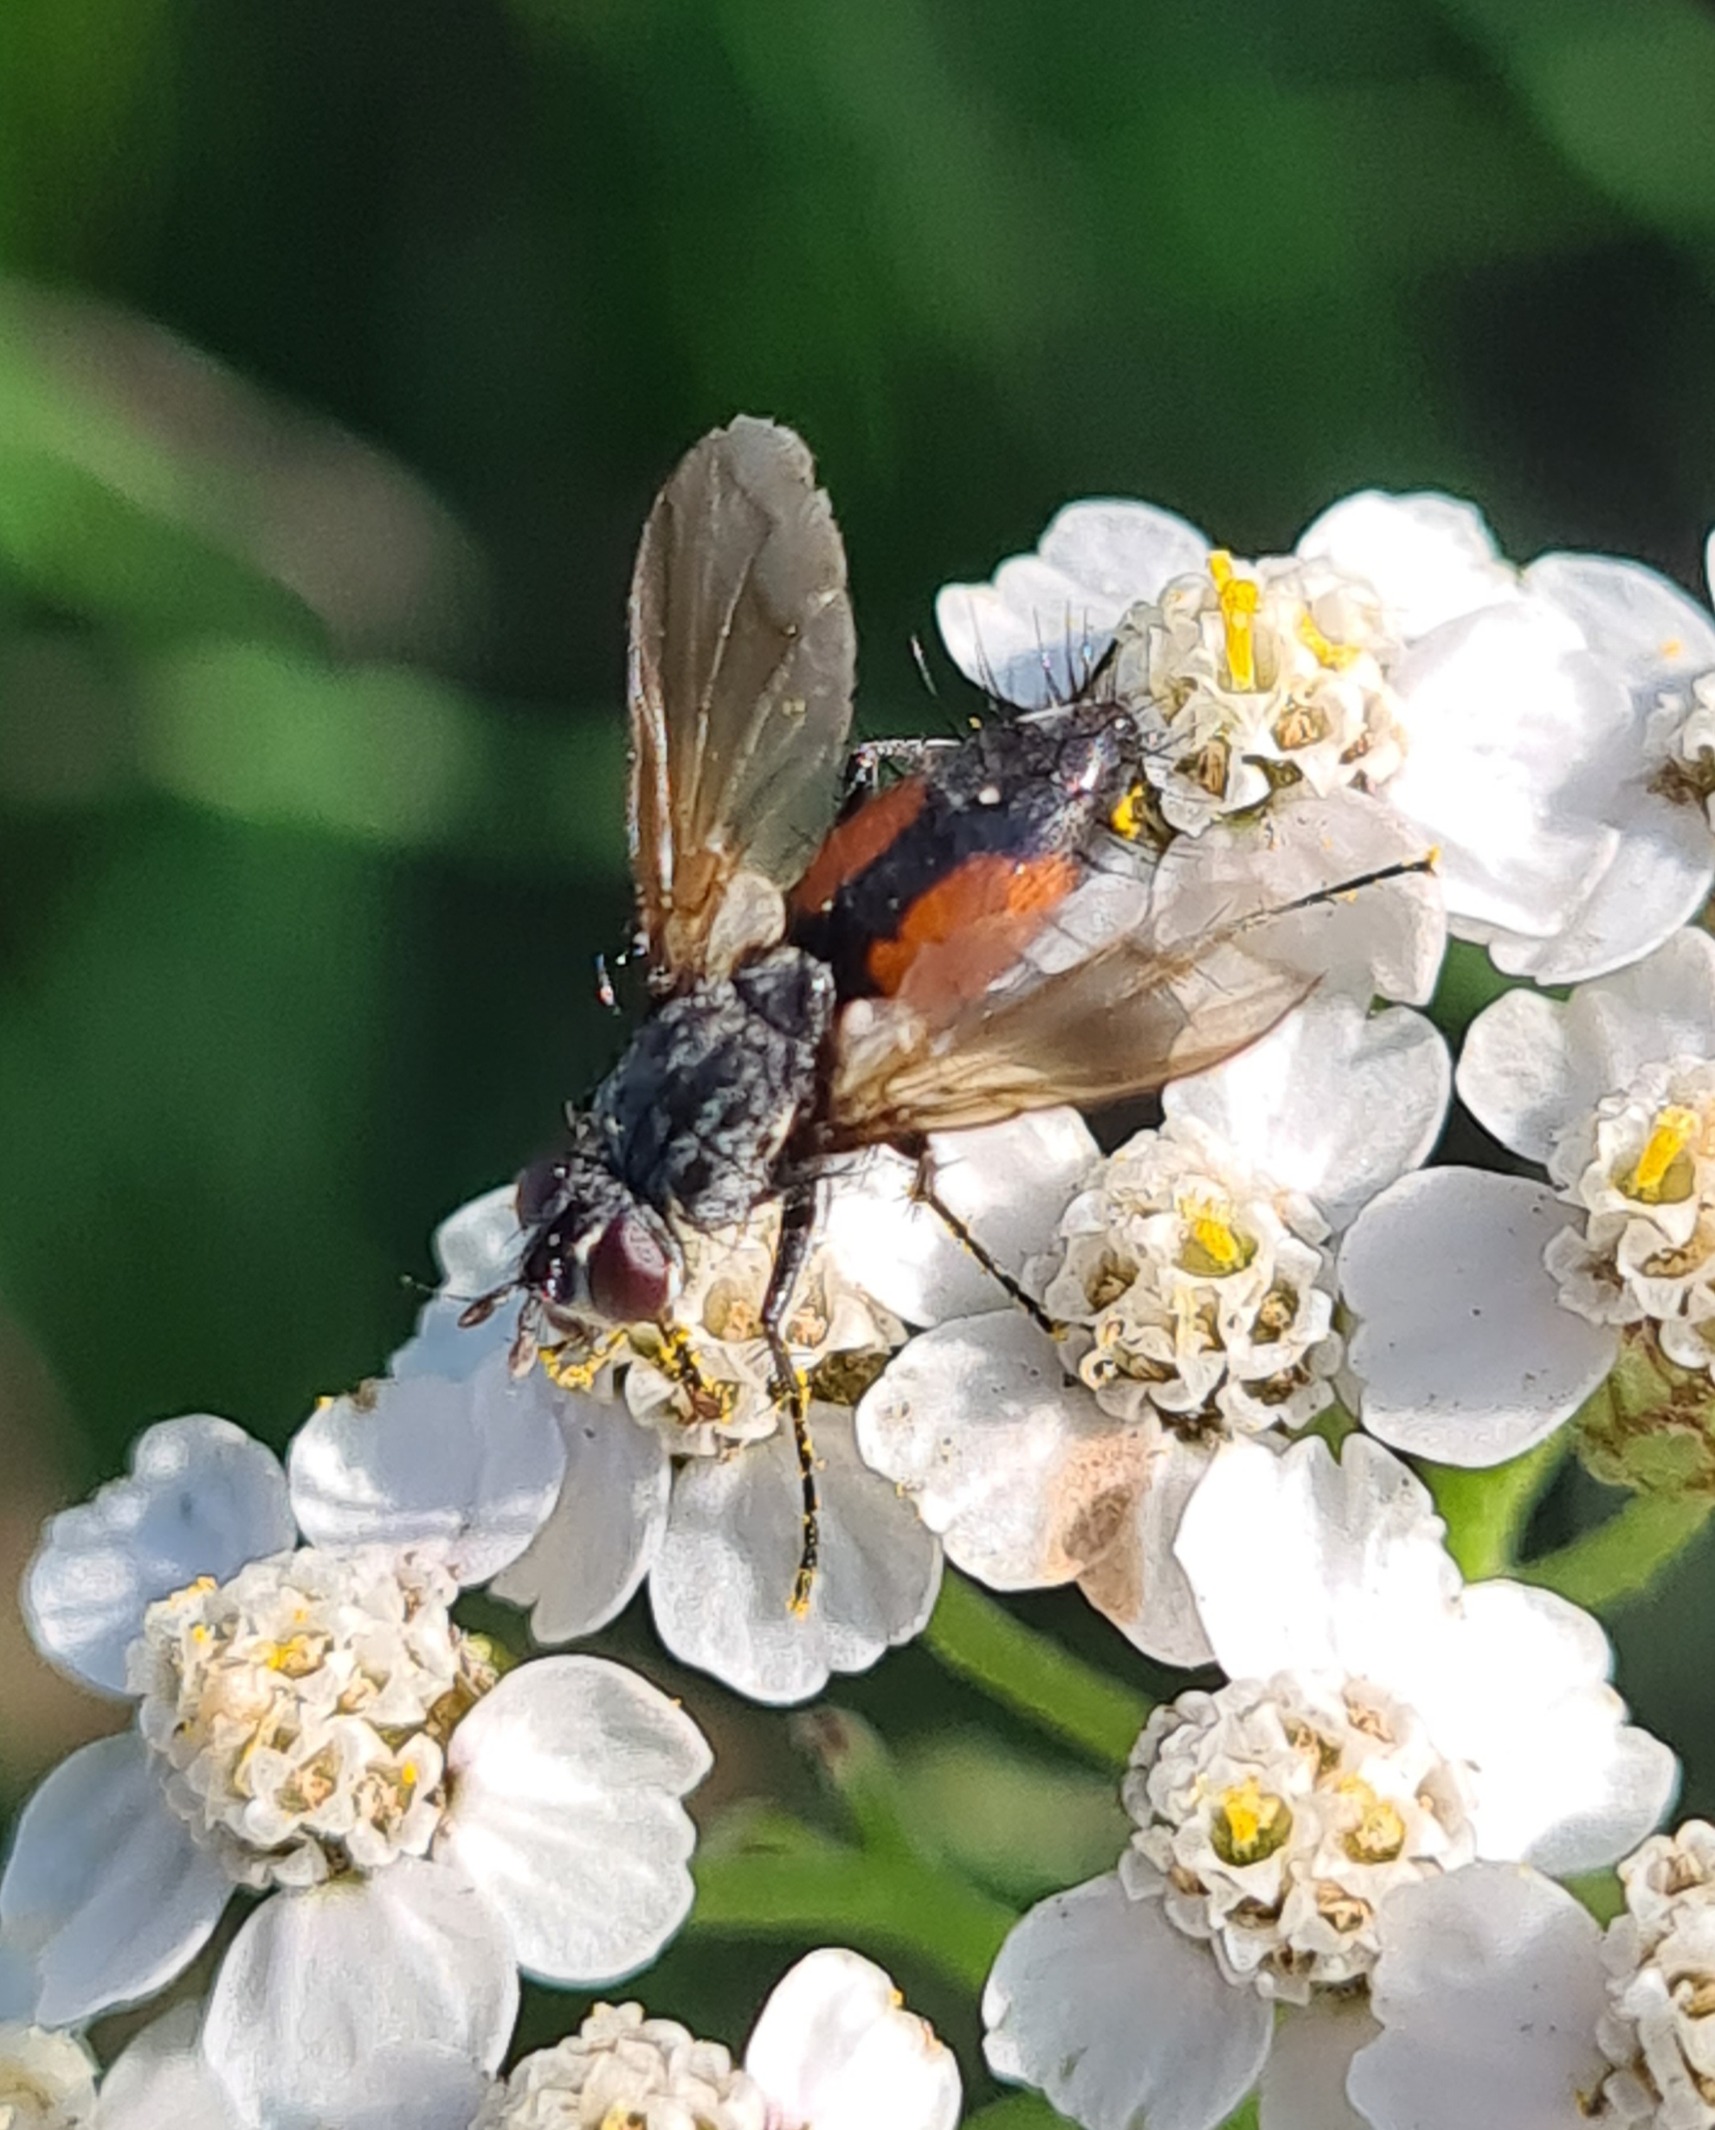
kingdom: Animalia
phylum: Arthropoda
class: Insecta
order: Diptera
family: Tachinidae
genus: Eriothrix
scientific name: Eriothrix rufomaculatus
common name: Rød snylteflue
